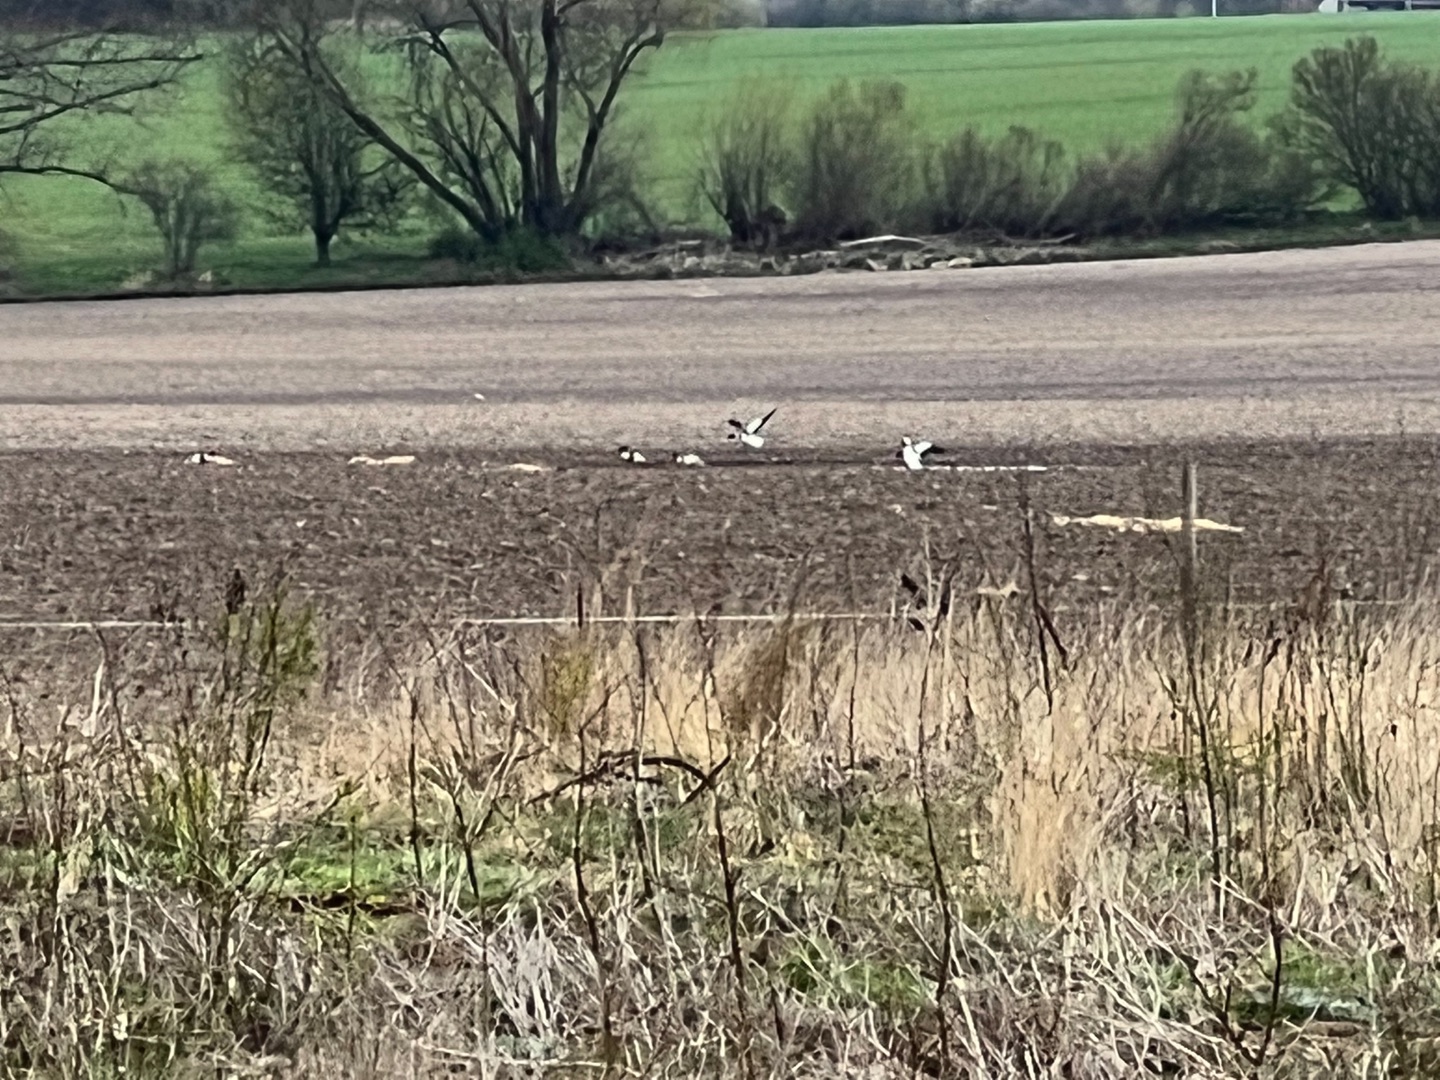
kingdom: Animalia
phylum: Chordata
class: Aves
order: Anseriformes
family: Anatidae
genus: Tadorna
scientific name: Tadorna tadorna
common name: Gravand
